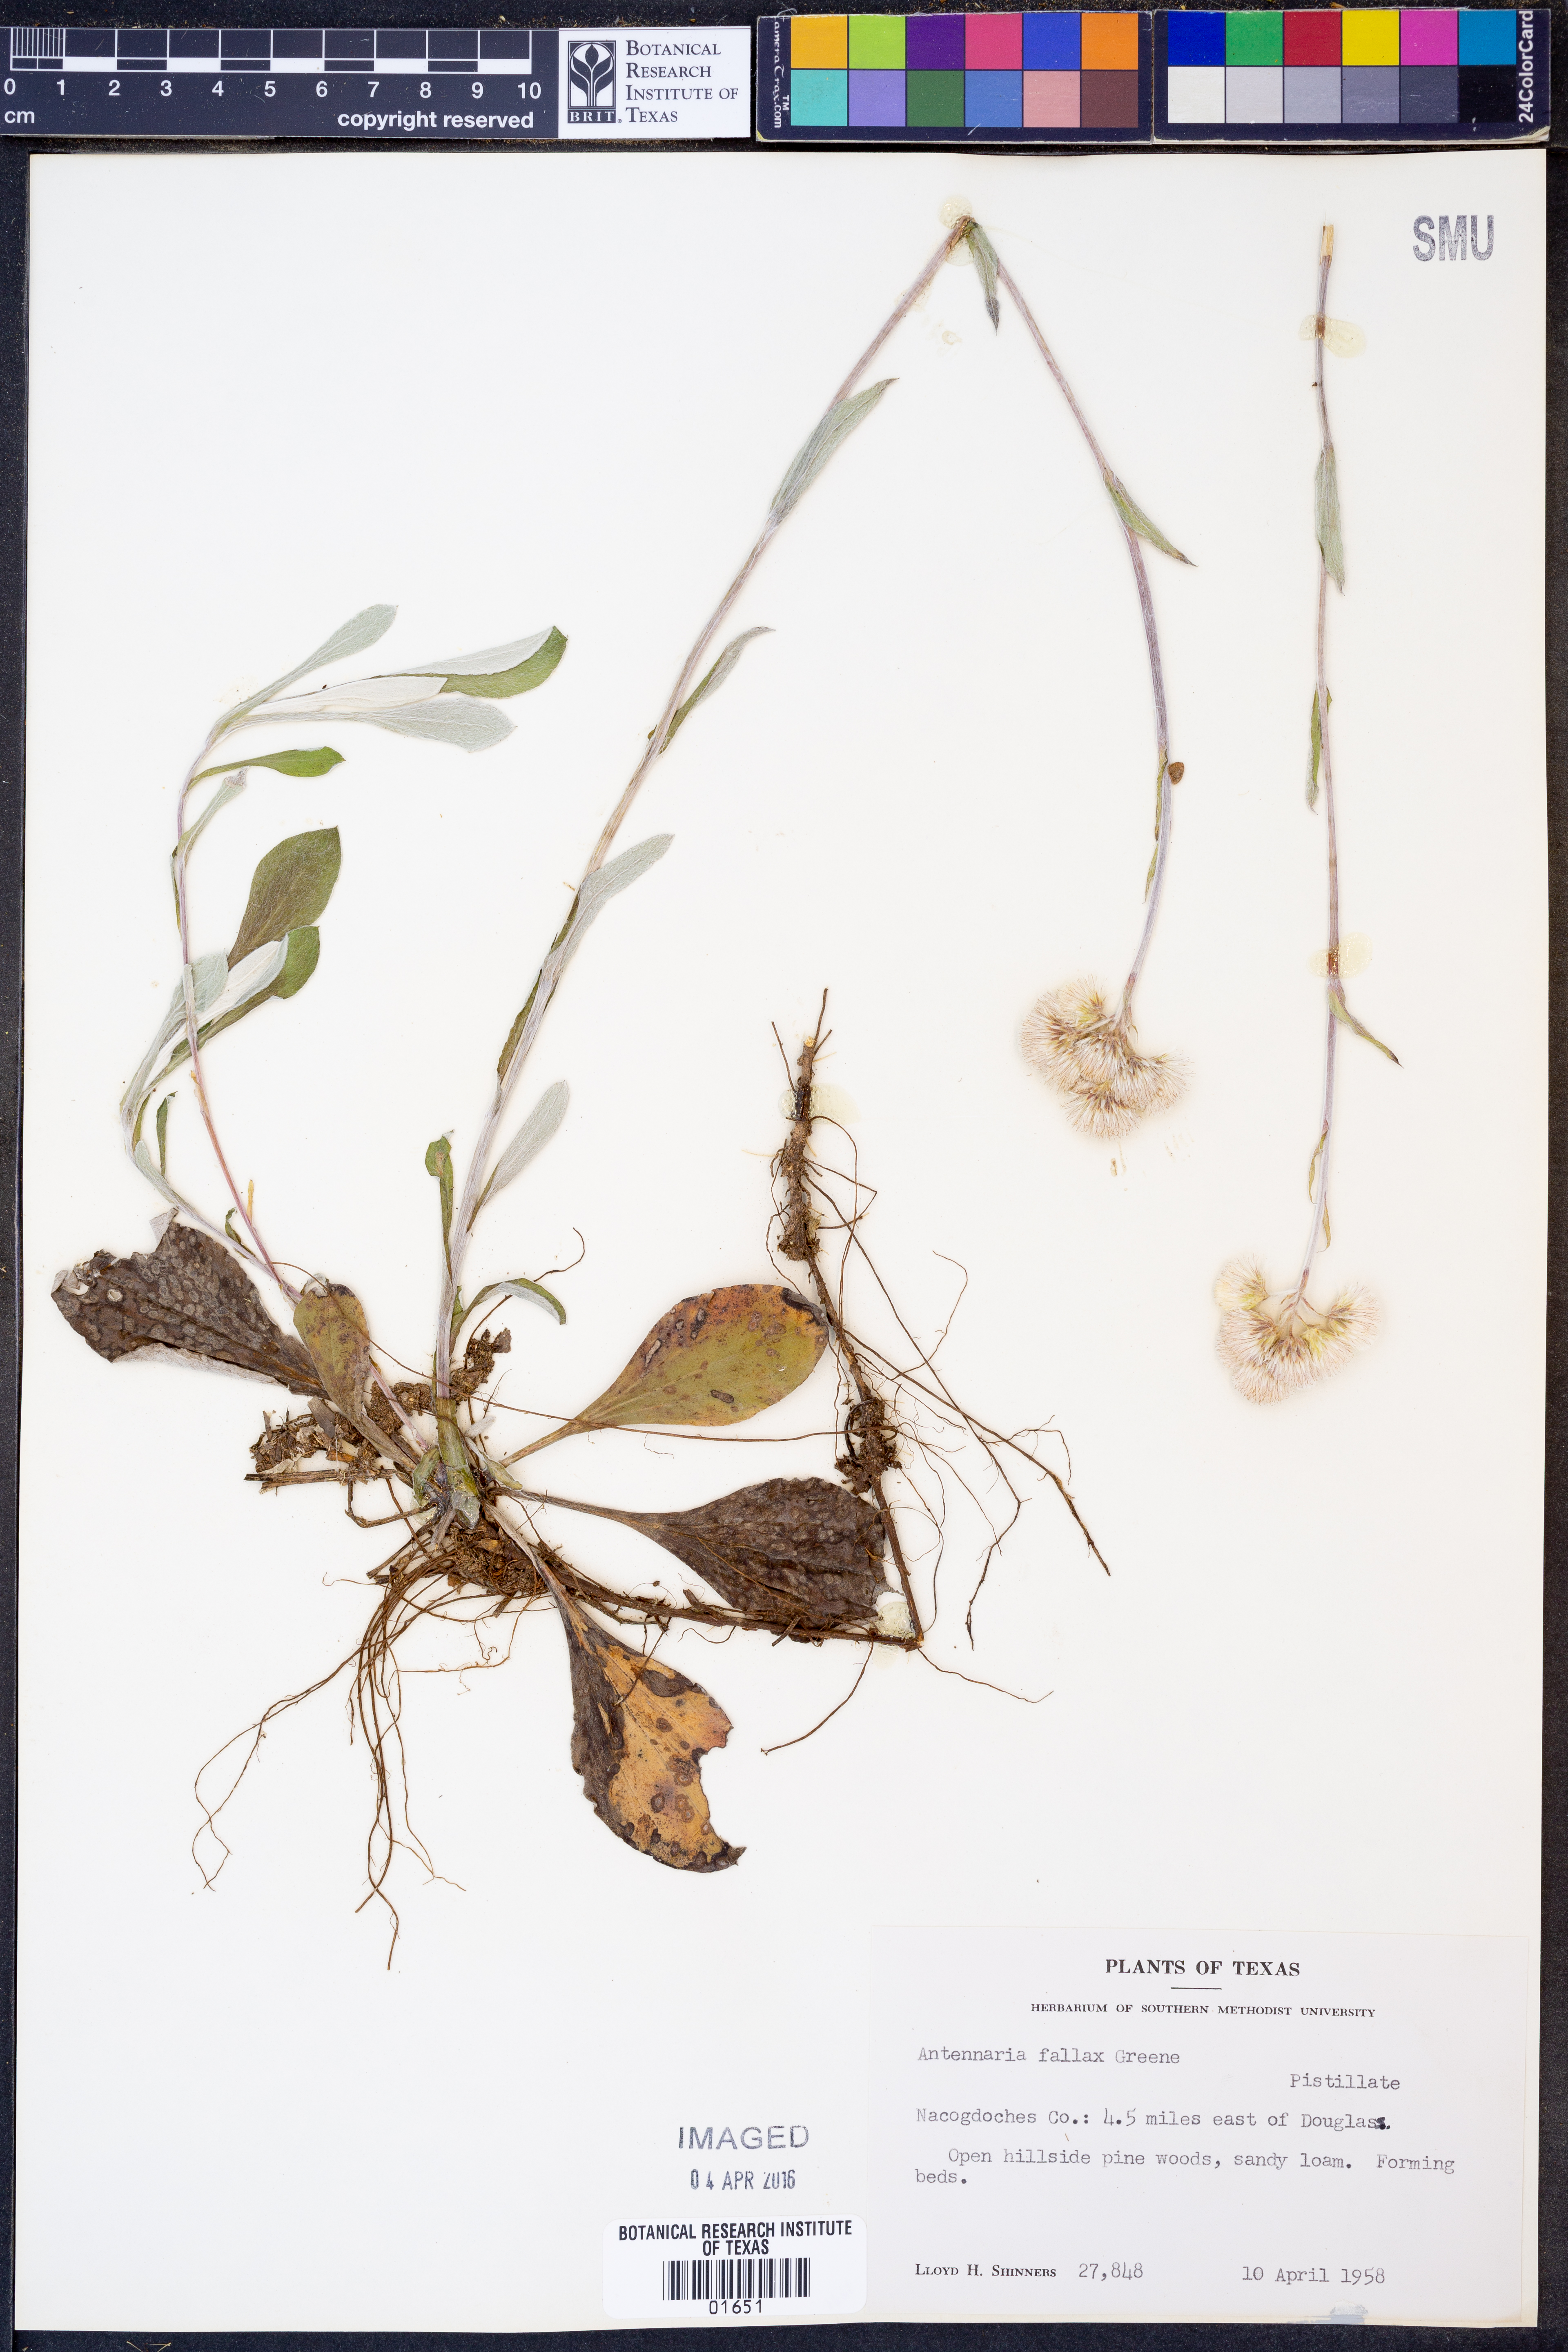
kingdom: Plantae
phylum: Tracheophyta
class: Magnoliopsida
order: Asterales
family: Asteraceae
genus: Antennaria
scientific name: Antennaria parlinii
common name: Parlin's pussytoes
